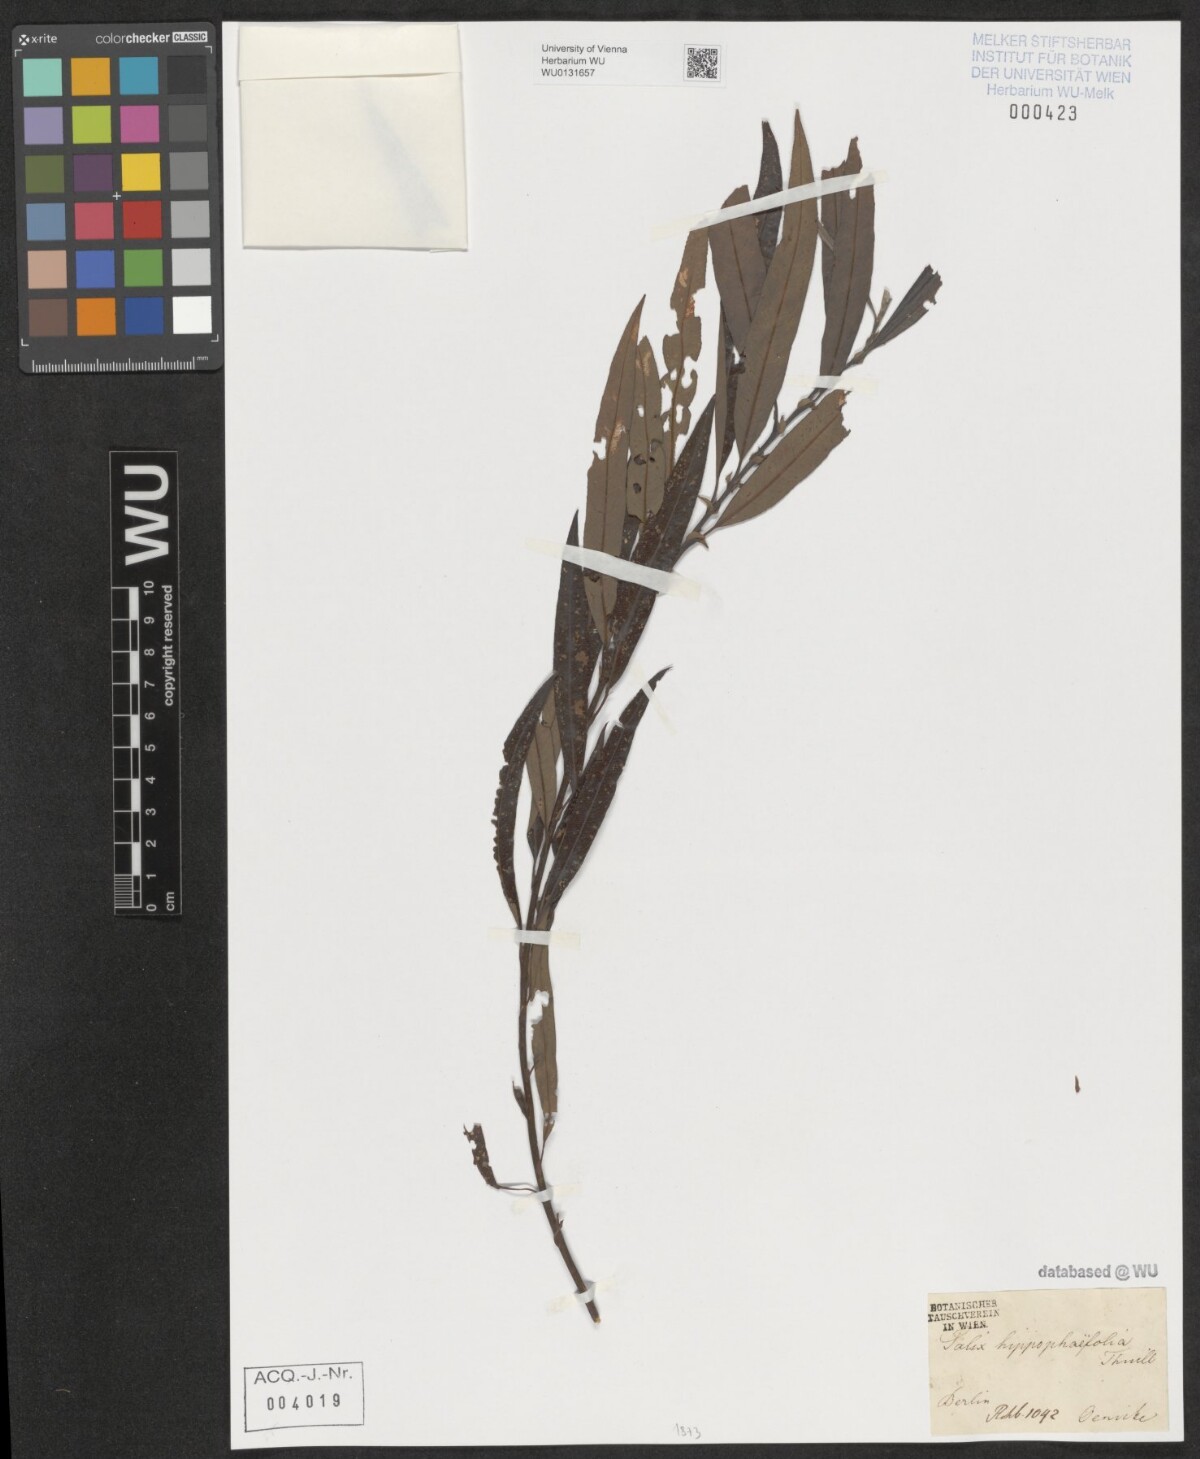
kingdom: Plantae
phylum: Tracheophyta
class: Magnoliopsida
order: Malpighiales
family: Salicaceae
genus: Salix
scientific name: Salix mollissima
